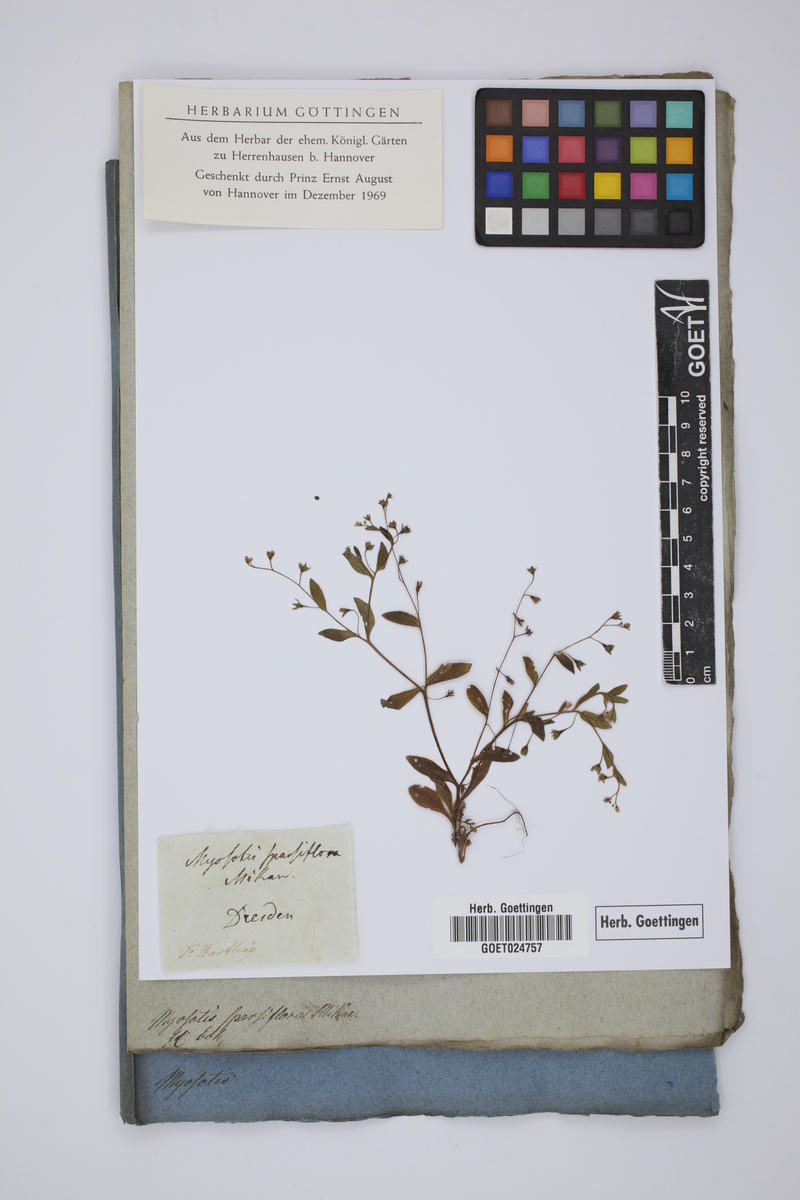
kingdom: Plantae
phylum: Tracheophyta
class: Magnoliopsida
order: Boraginales
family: Boraginaceae
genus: Myosotis
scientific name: Myosotis sparsiflora
